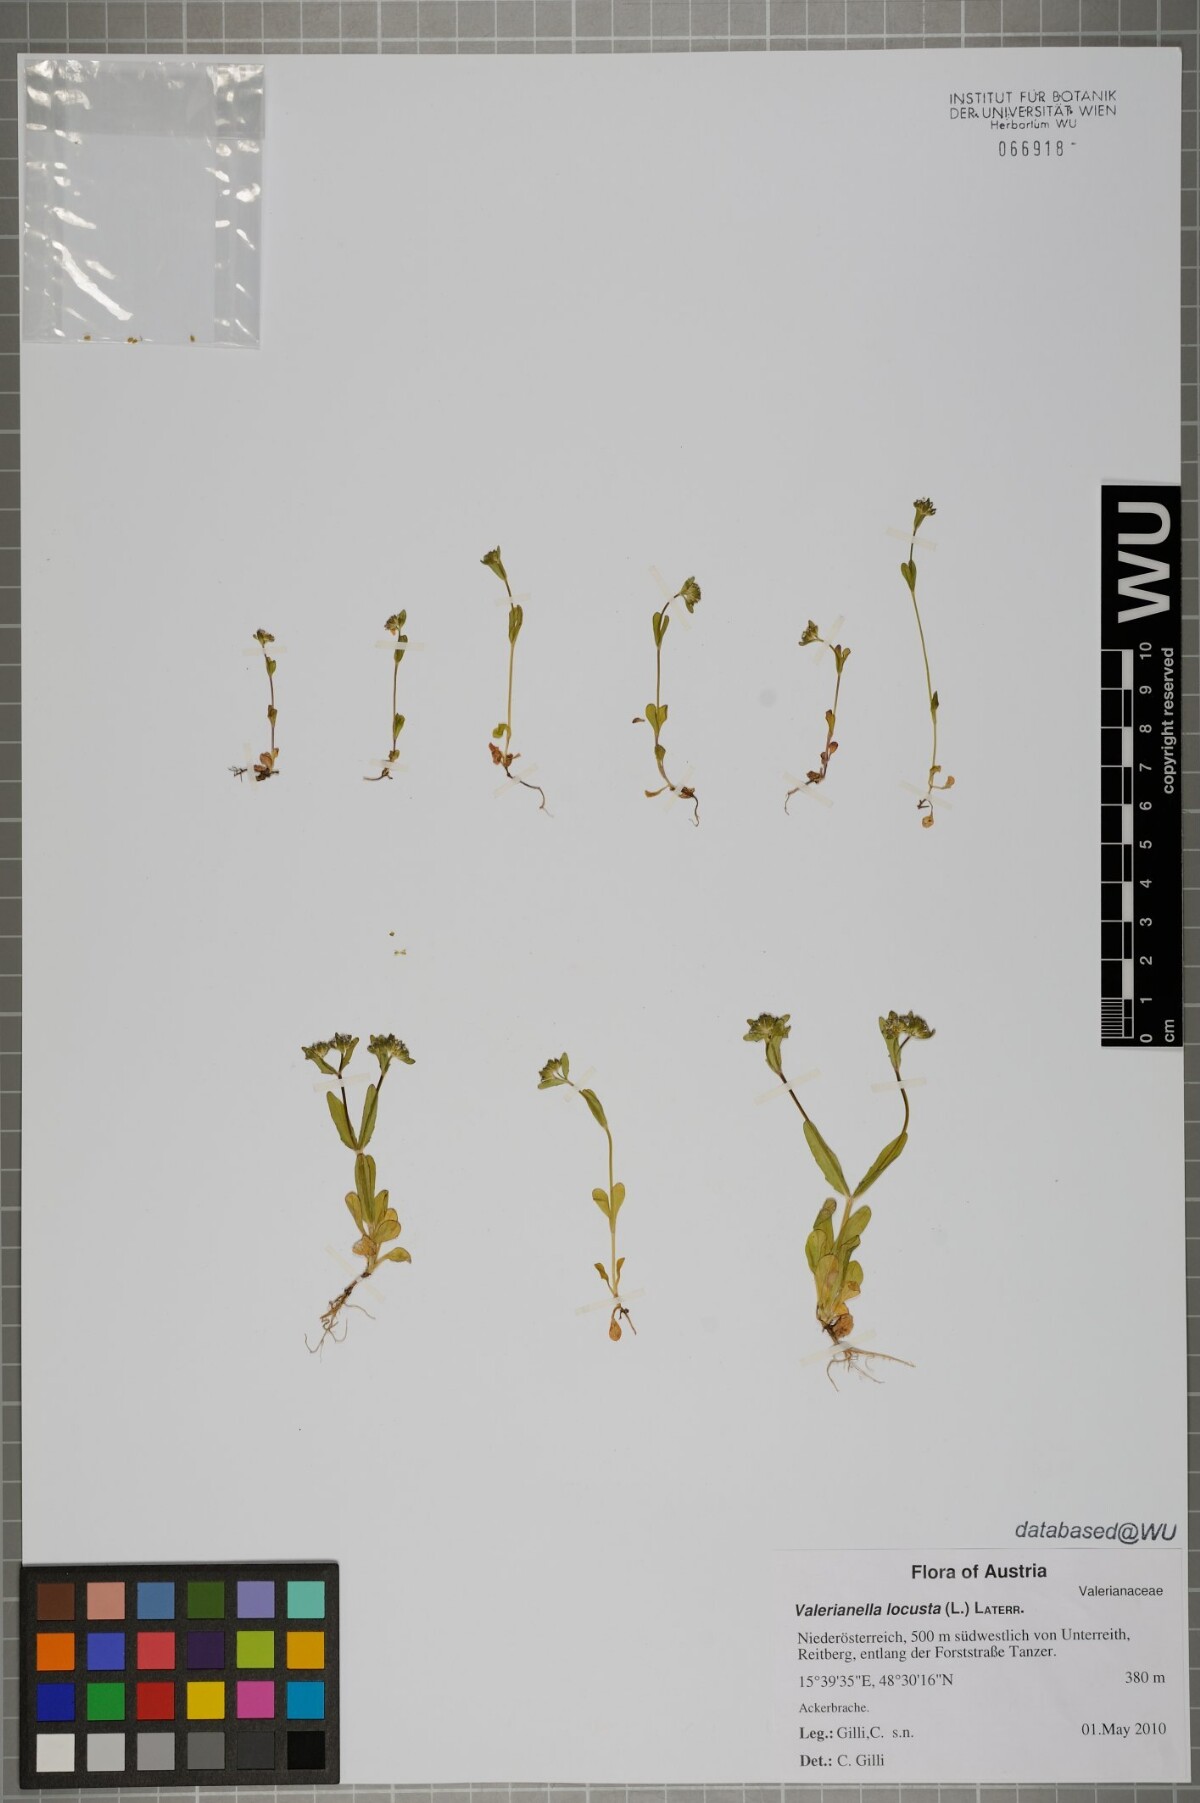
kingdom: Plantae
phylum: Tracheophyta
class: Magnoliopsida
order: Dipsacales
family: Caprifoliaceae
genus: Valerianella
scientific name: Valerianella locusta
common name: Common cornsalad
